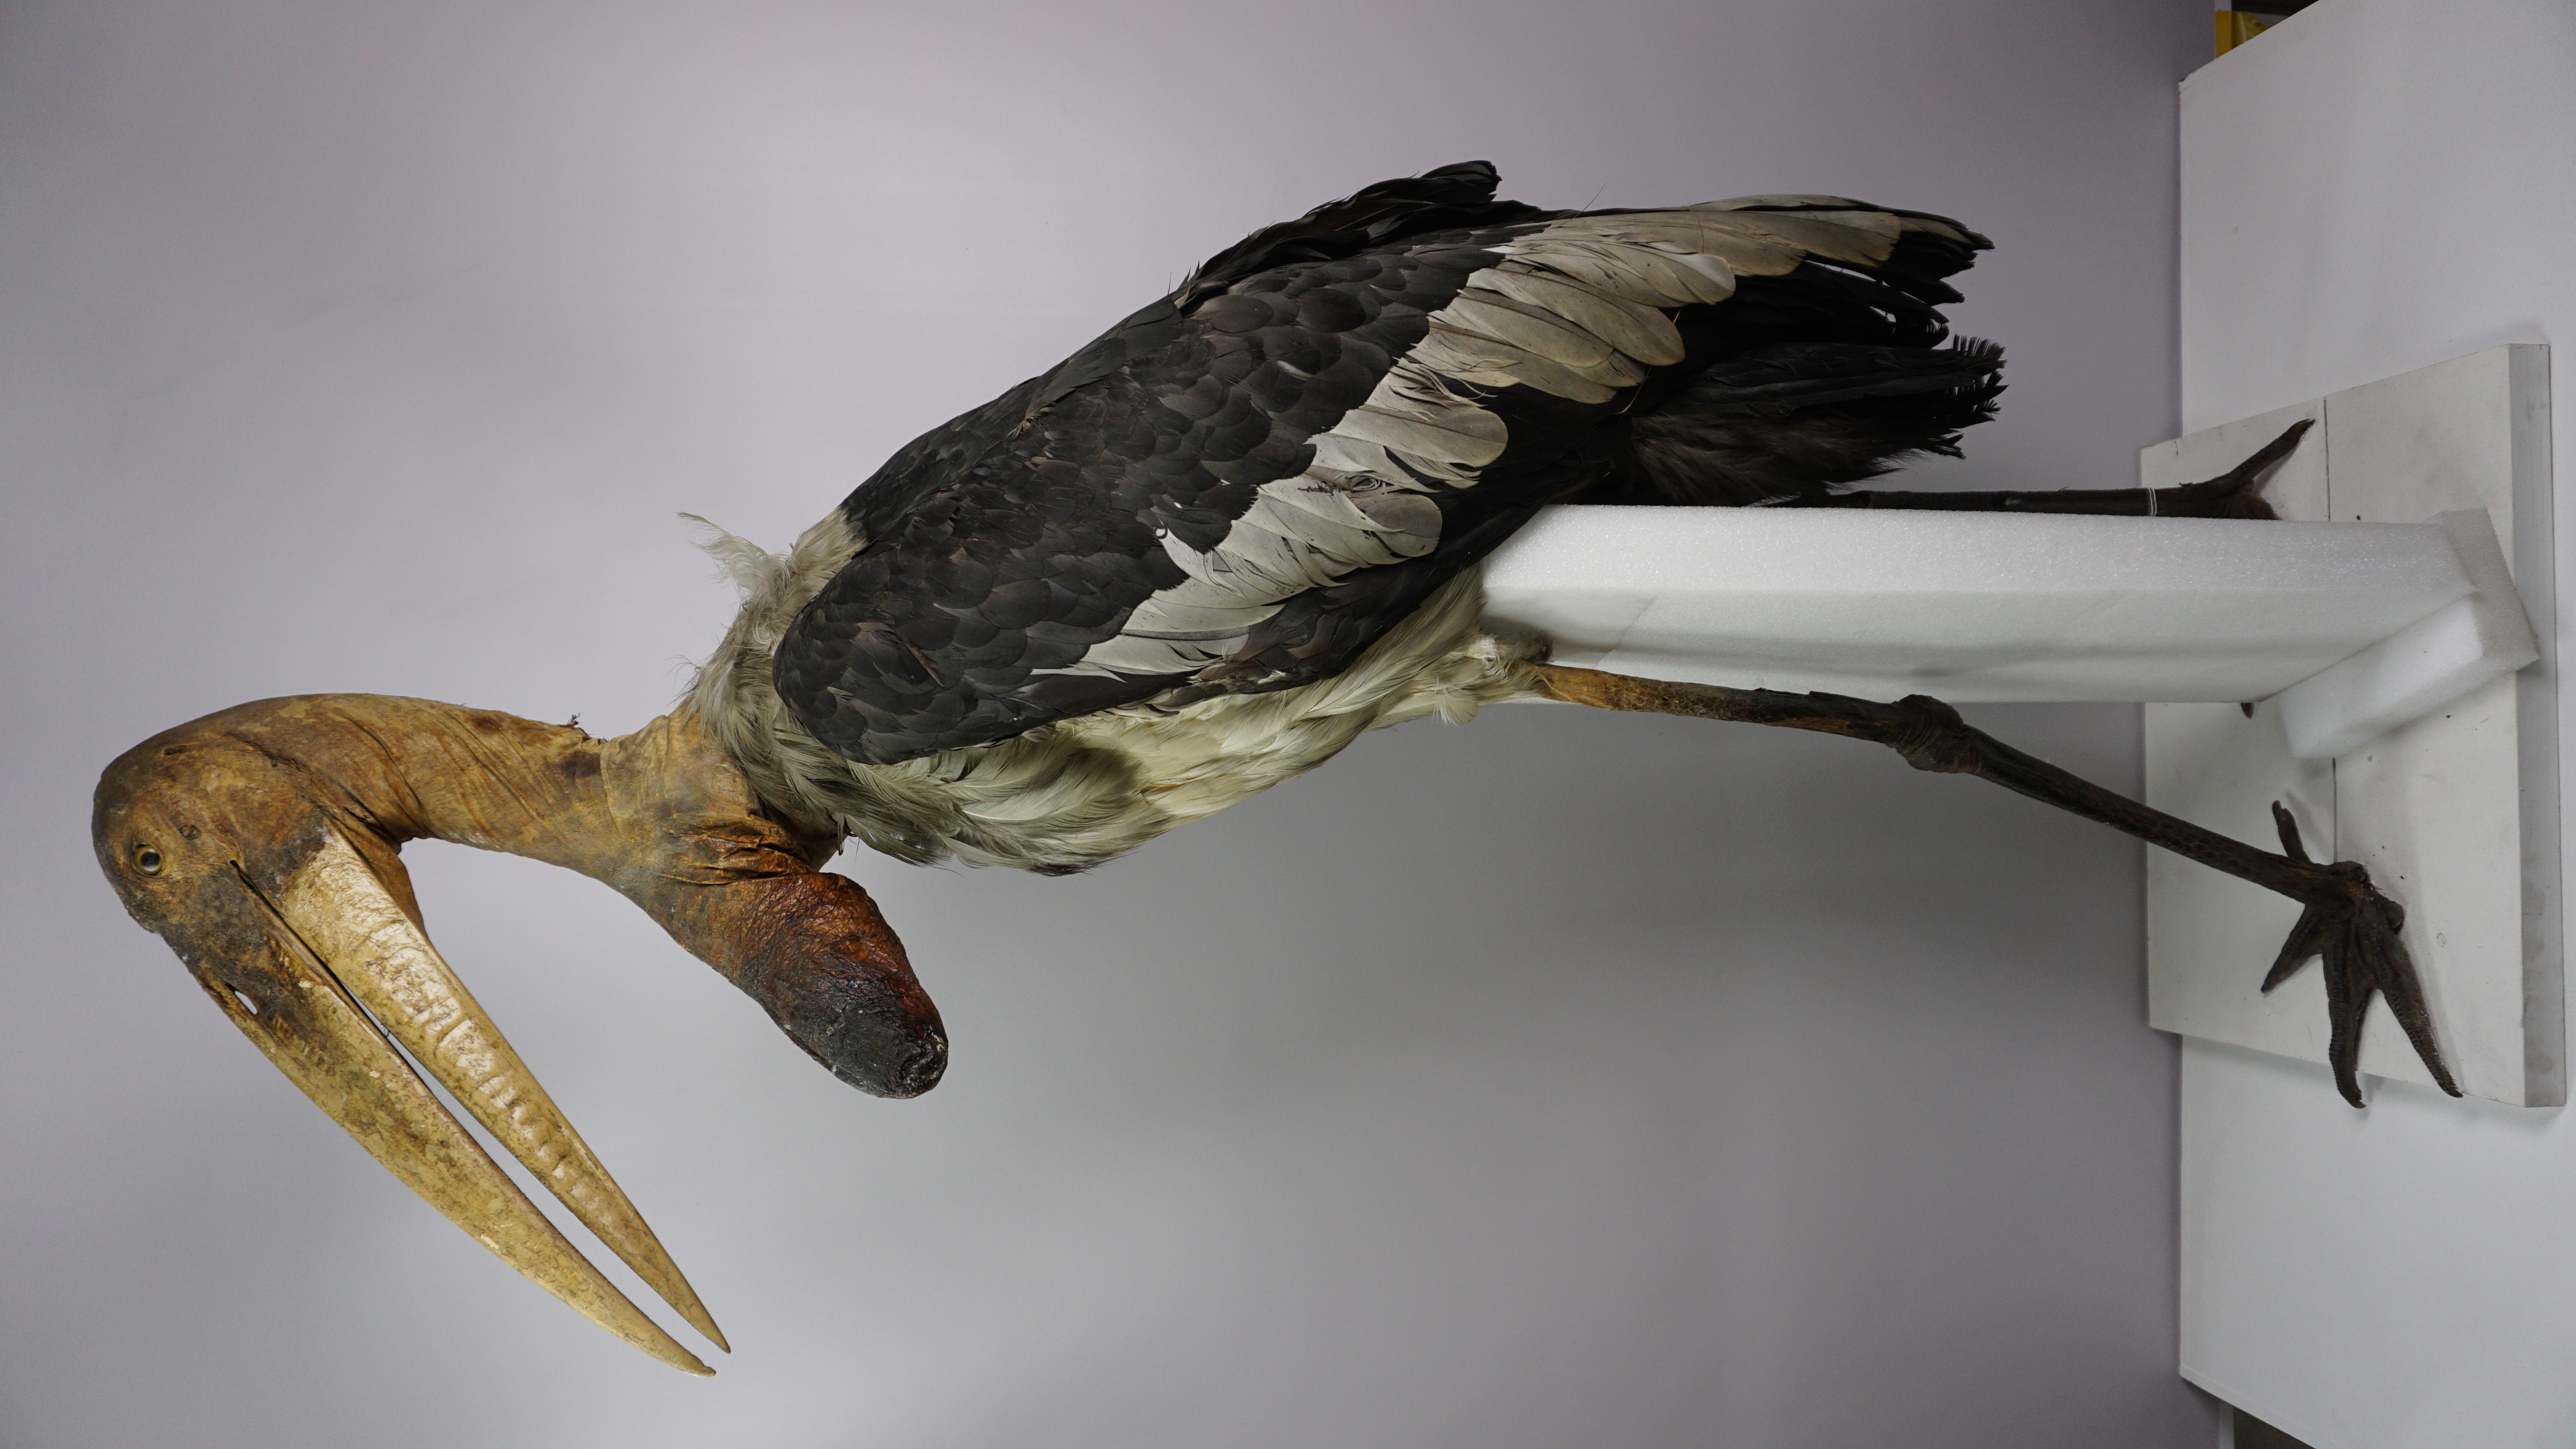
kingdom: Animalia
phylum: Chordata
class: Aves
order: Ciconiiformes
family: Ciconiidae
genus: Leptoptilos
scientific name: Leptoptilos dubius
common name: Greater adjutant
